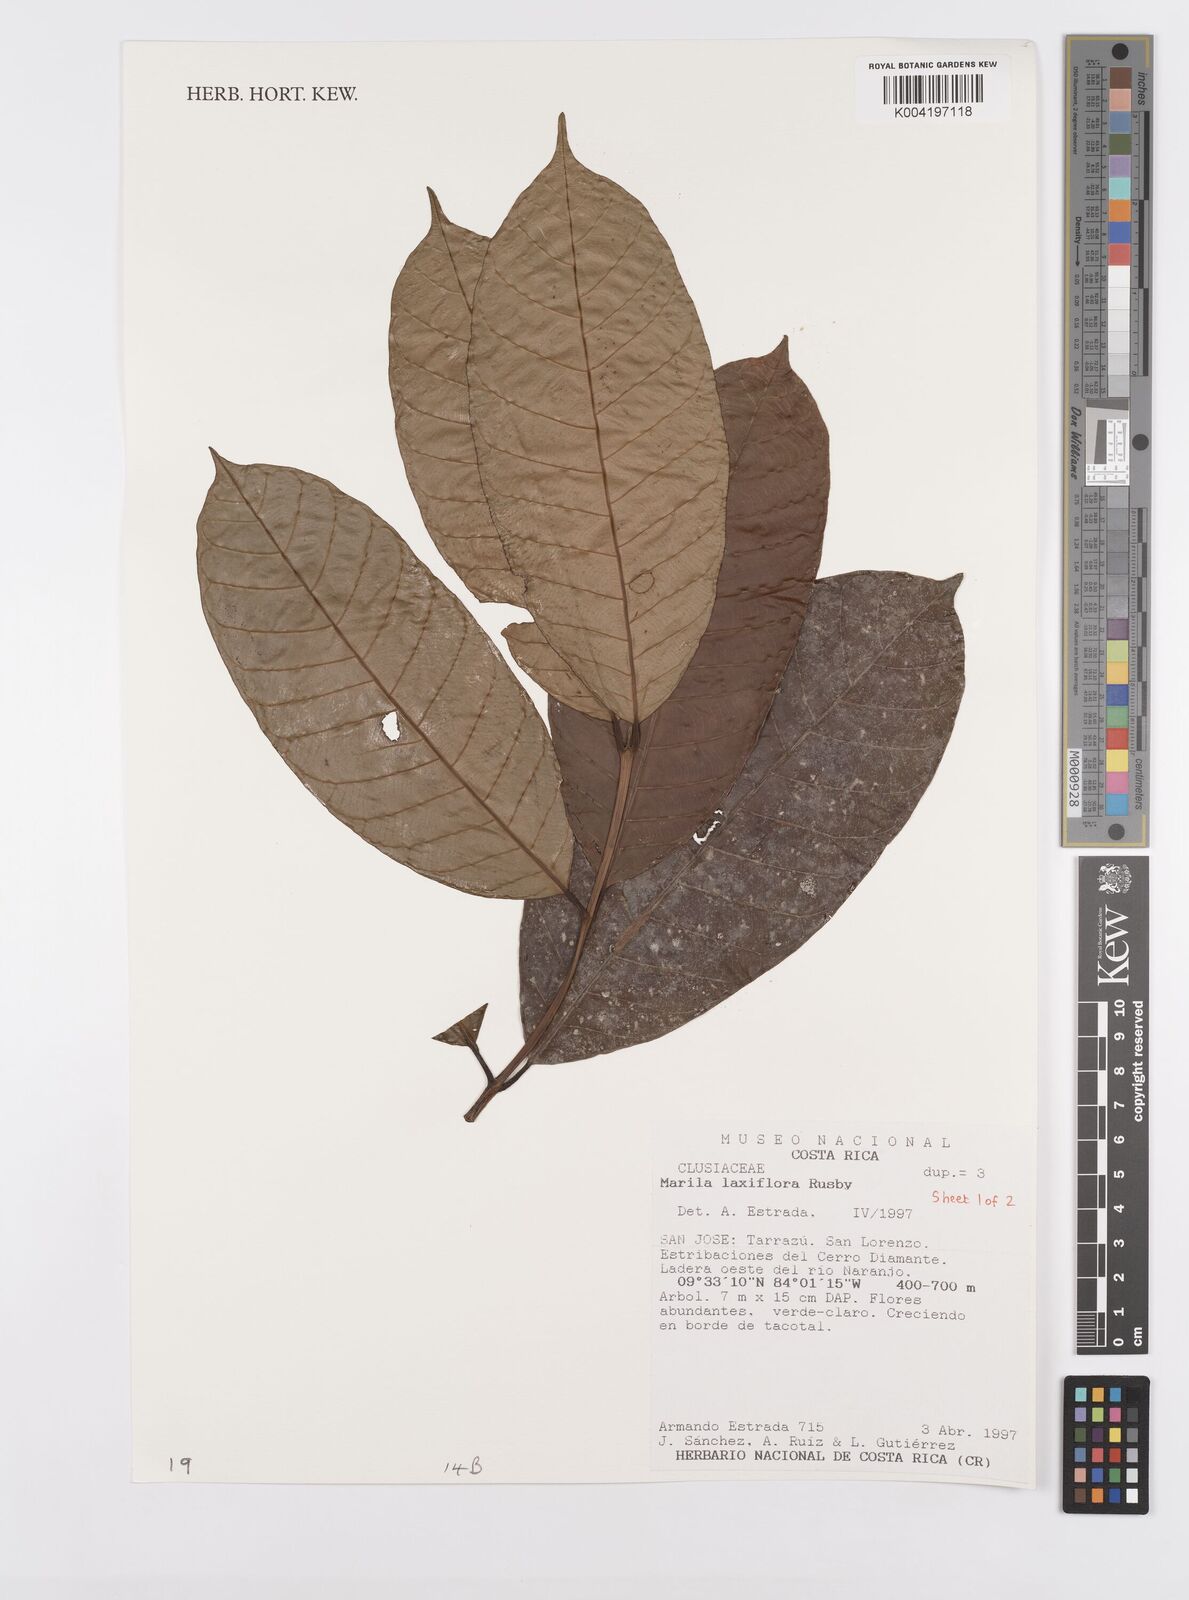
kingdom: Plantae
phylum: Tracheophyta
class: Magnoliopsida
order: Malpighiales
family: Calophyllaceae
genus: Marila
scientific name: Marila laxiflora
